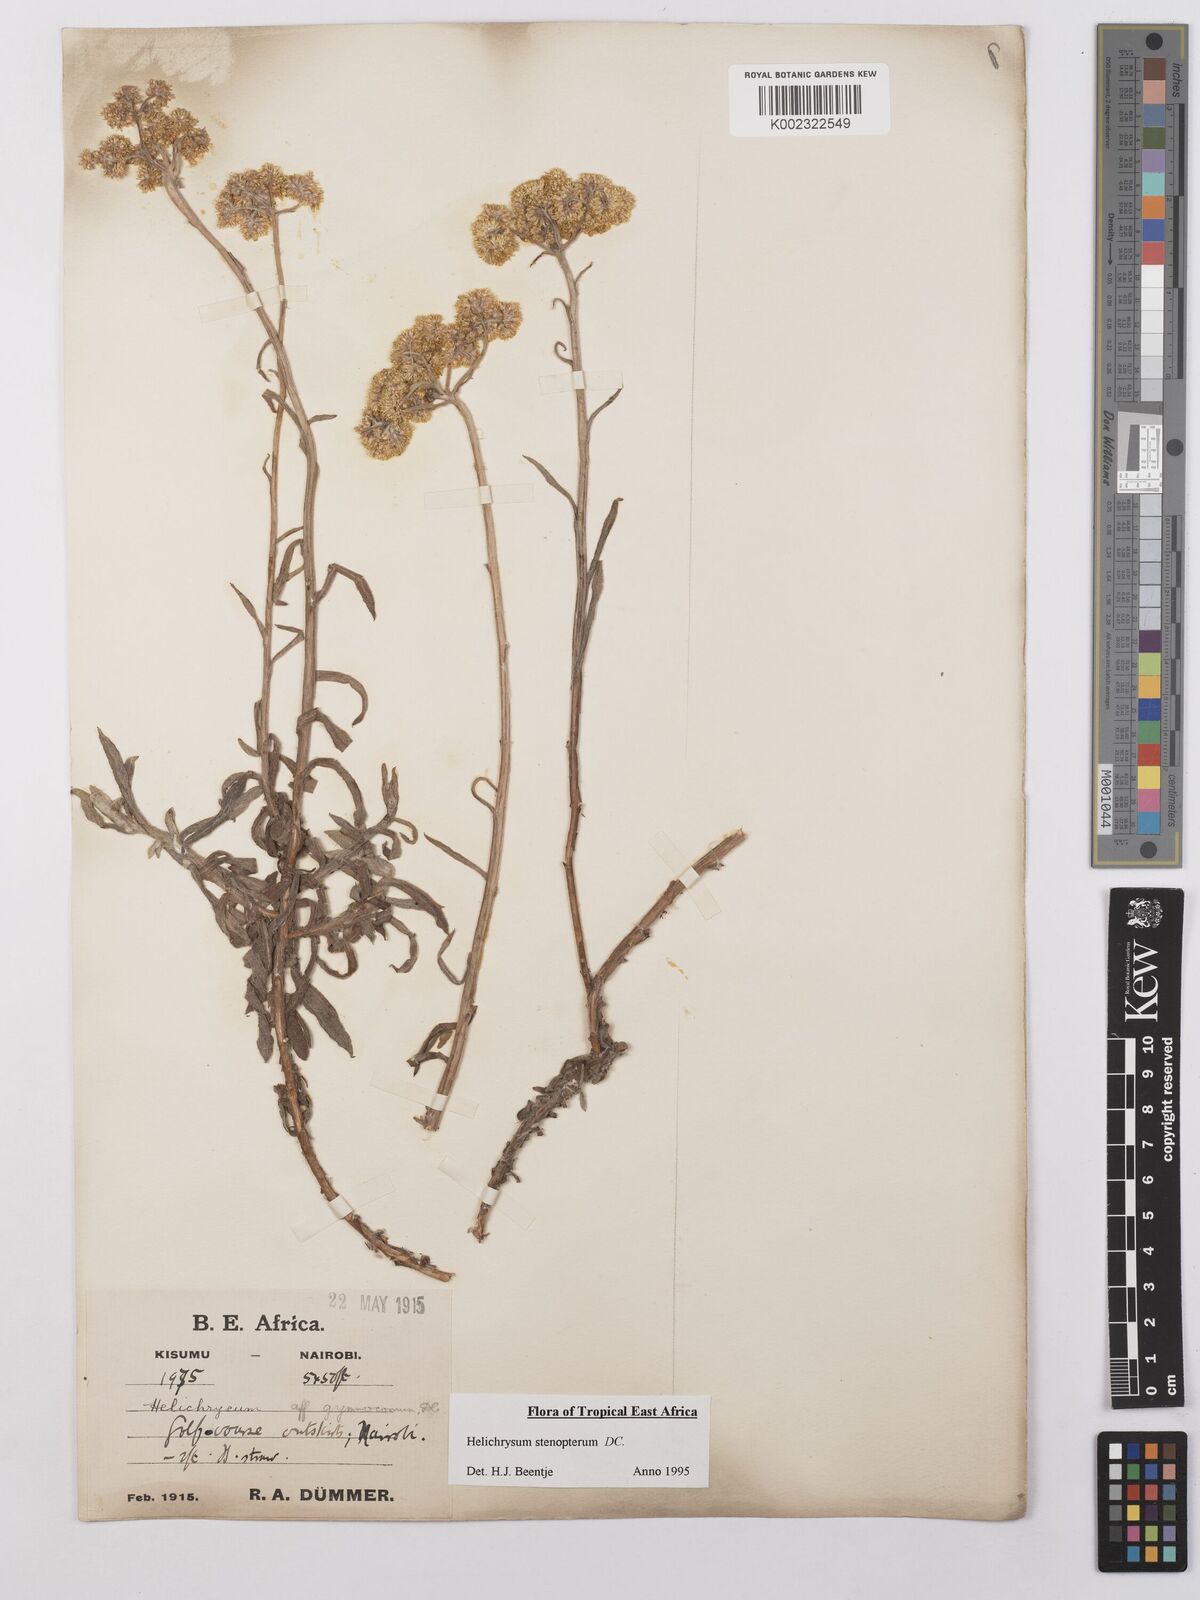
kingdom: Plantae
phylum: Tracheophyta
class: Magnoliopsida
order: Asterales
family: Asteraceae
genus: Helichrysum
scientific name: Helichrysum stenopterum
